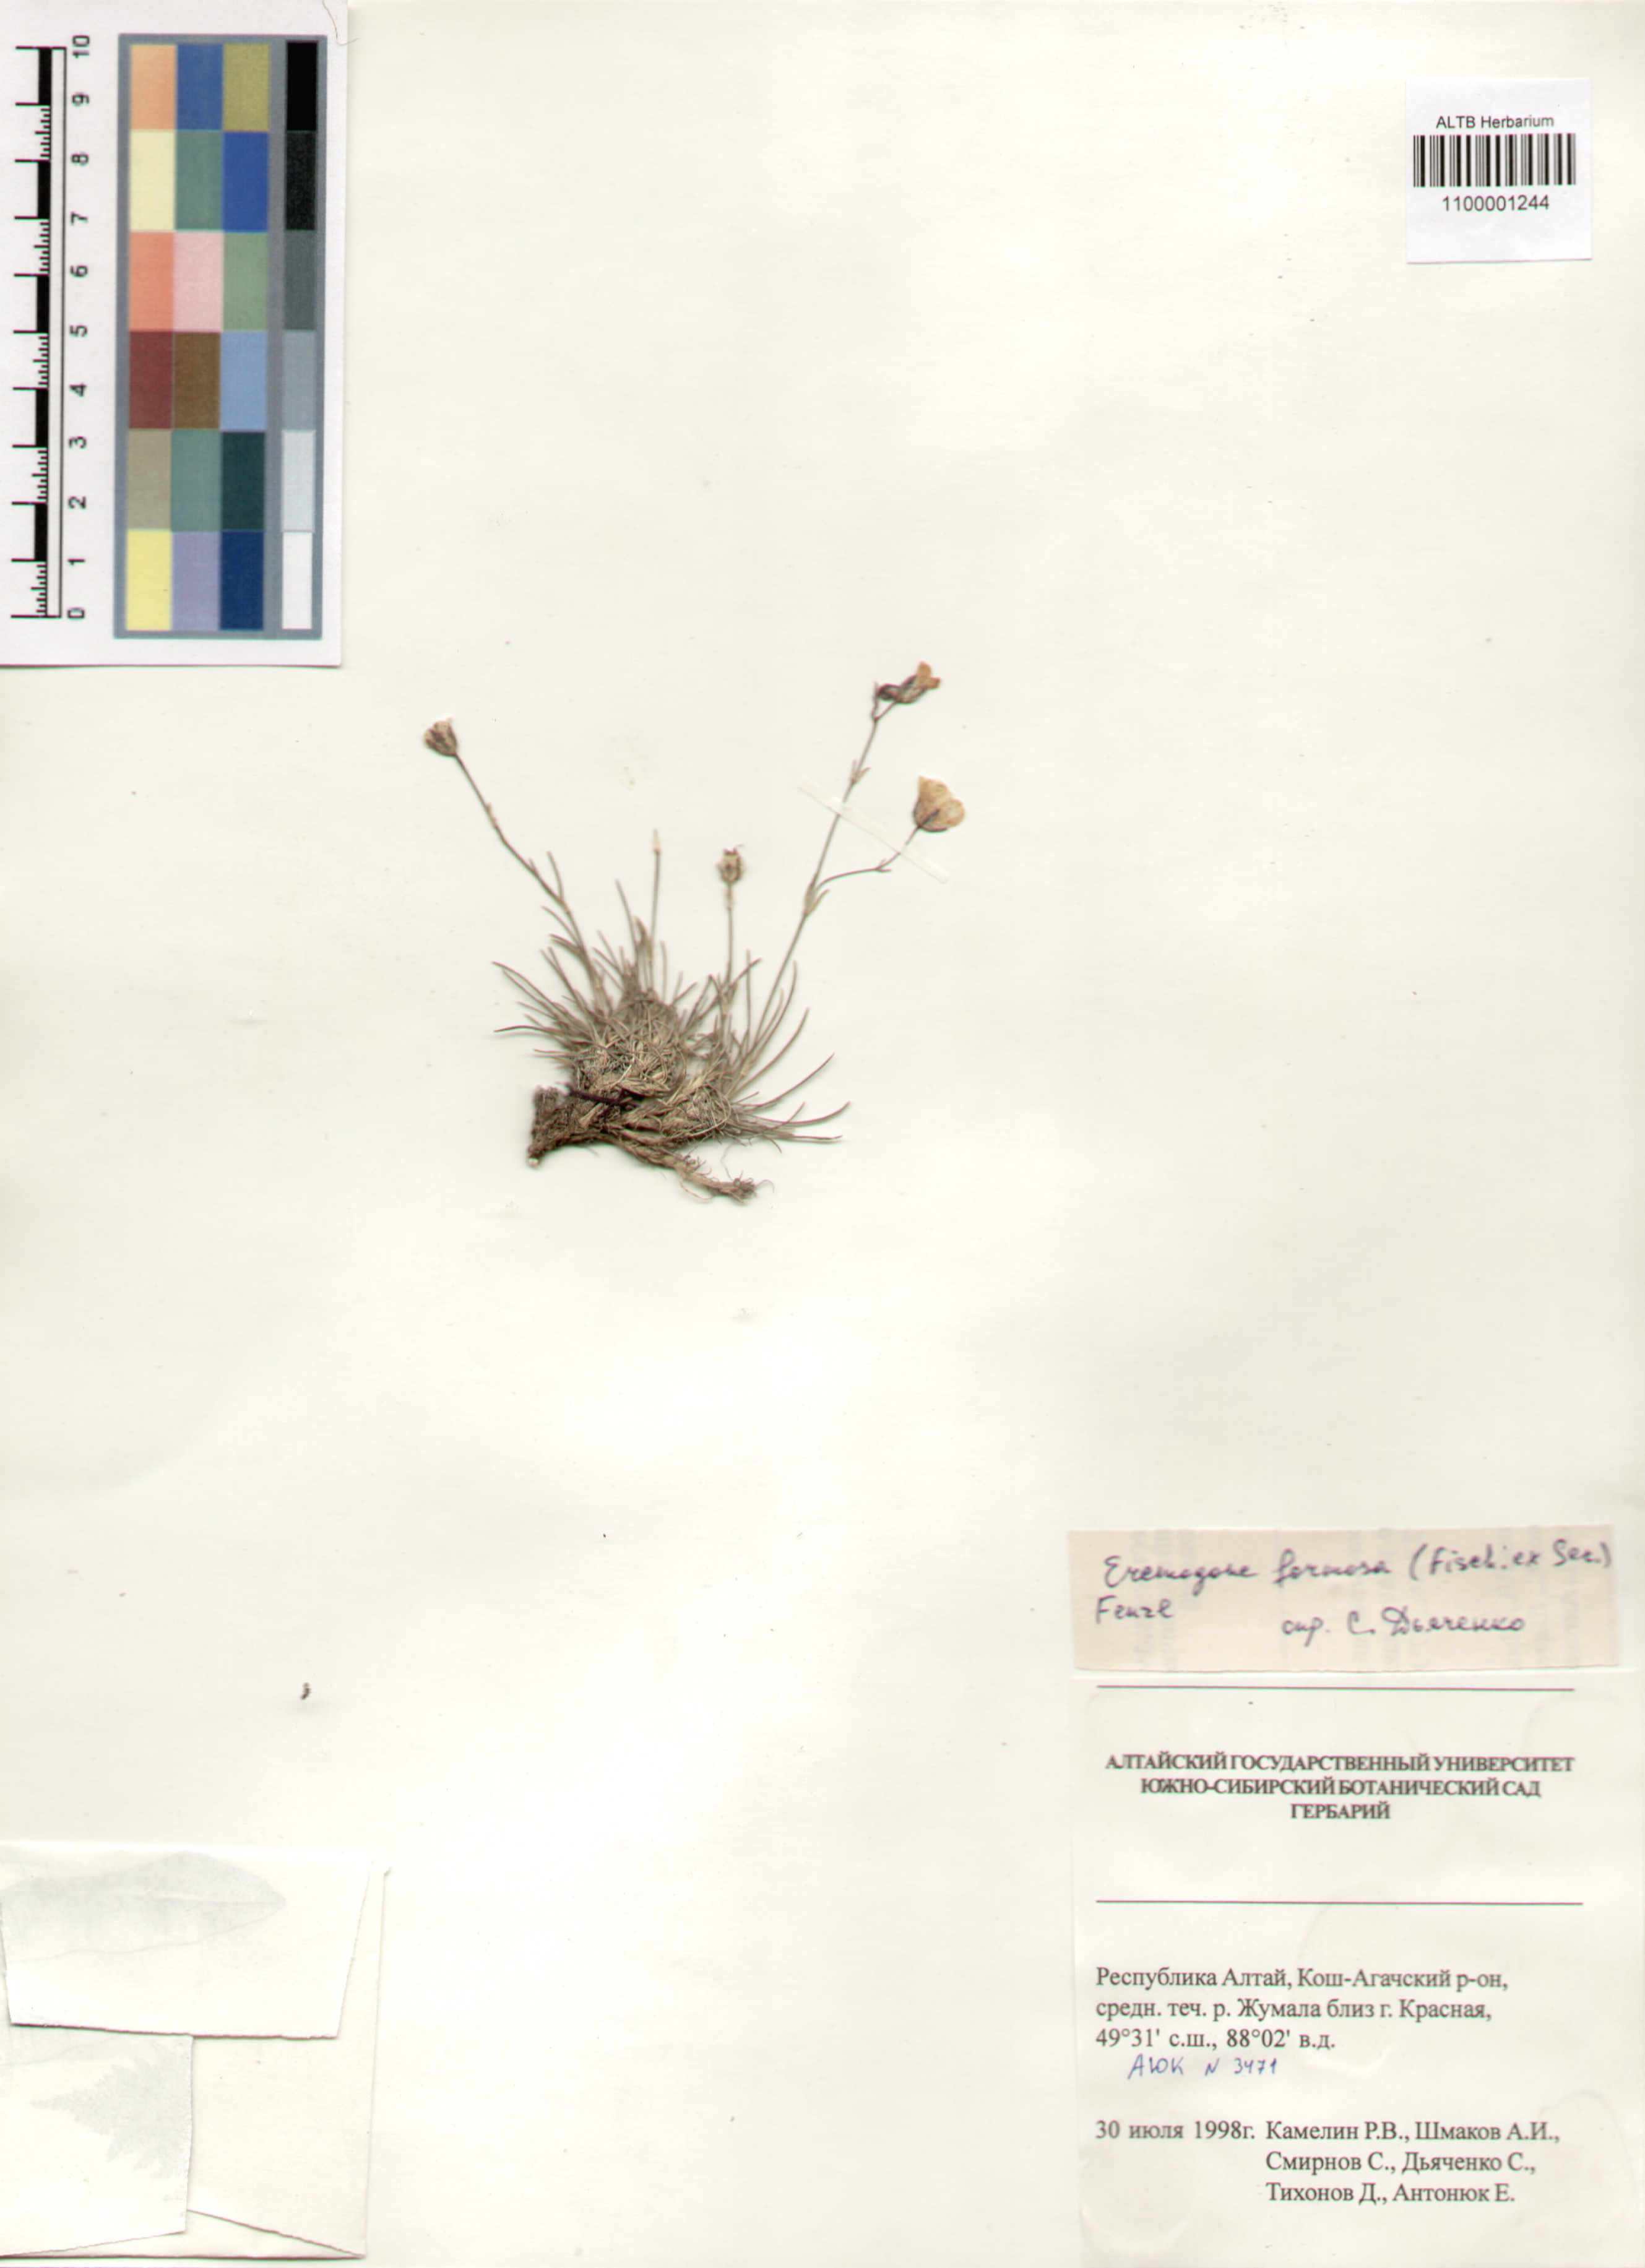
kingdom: Plantae
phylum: Tracheophyta
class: Magnoliopsida
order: Caryophyllales
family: Caryophyllaceae
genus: Eremogone
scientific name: Eremogone formosa
